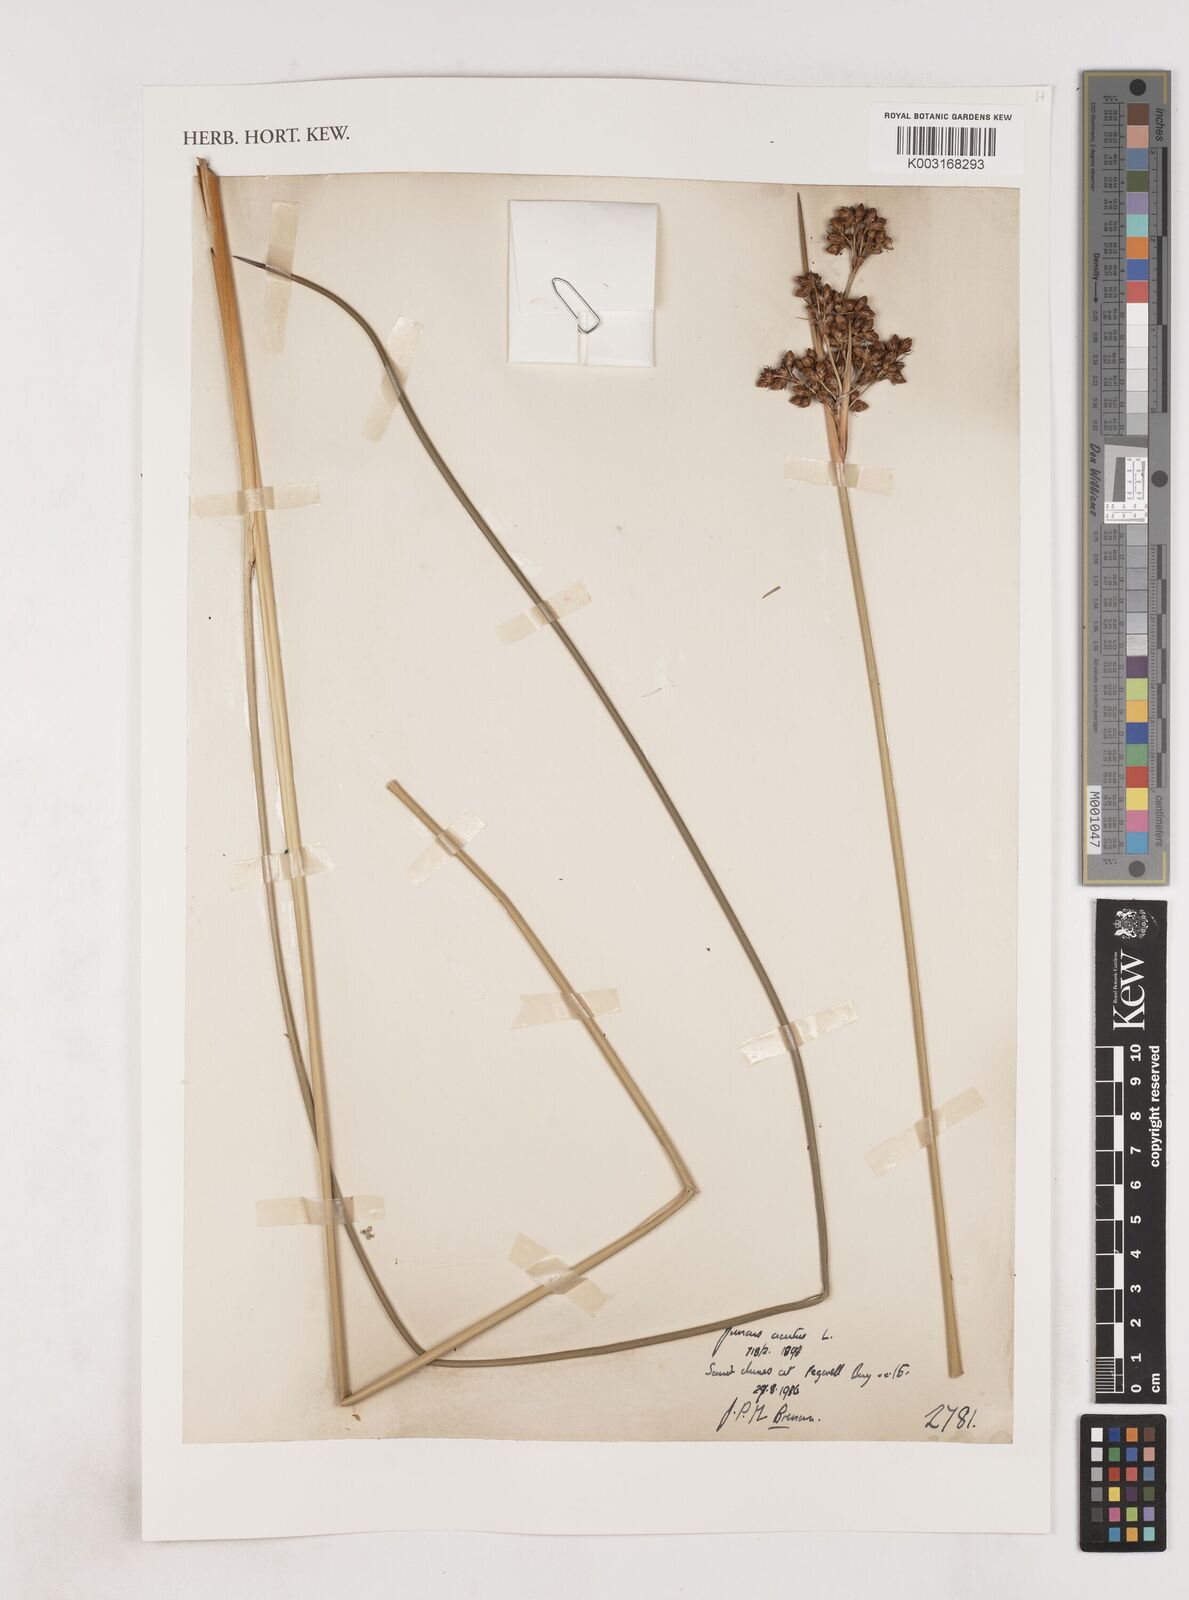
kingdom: Plantae
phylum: Tracheophyta
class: Liliopsida
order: Poales
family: Juncaceae
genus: Juncus
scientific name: Juncus acutus
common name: Sharp rush
